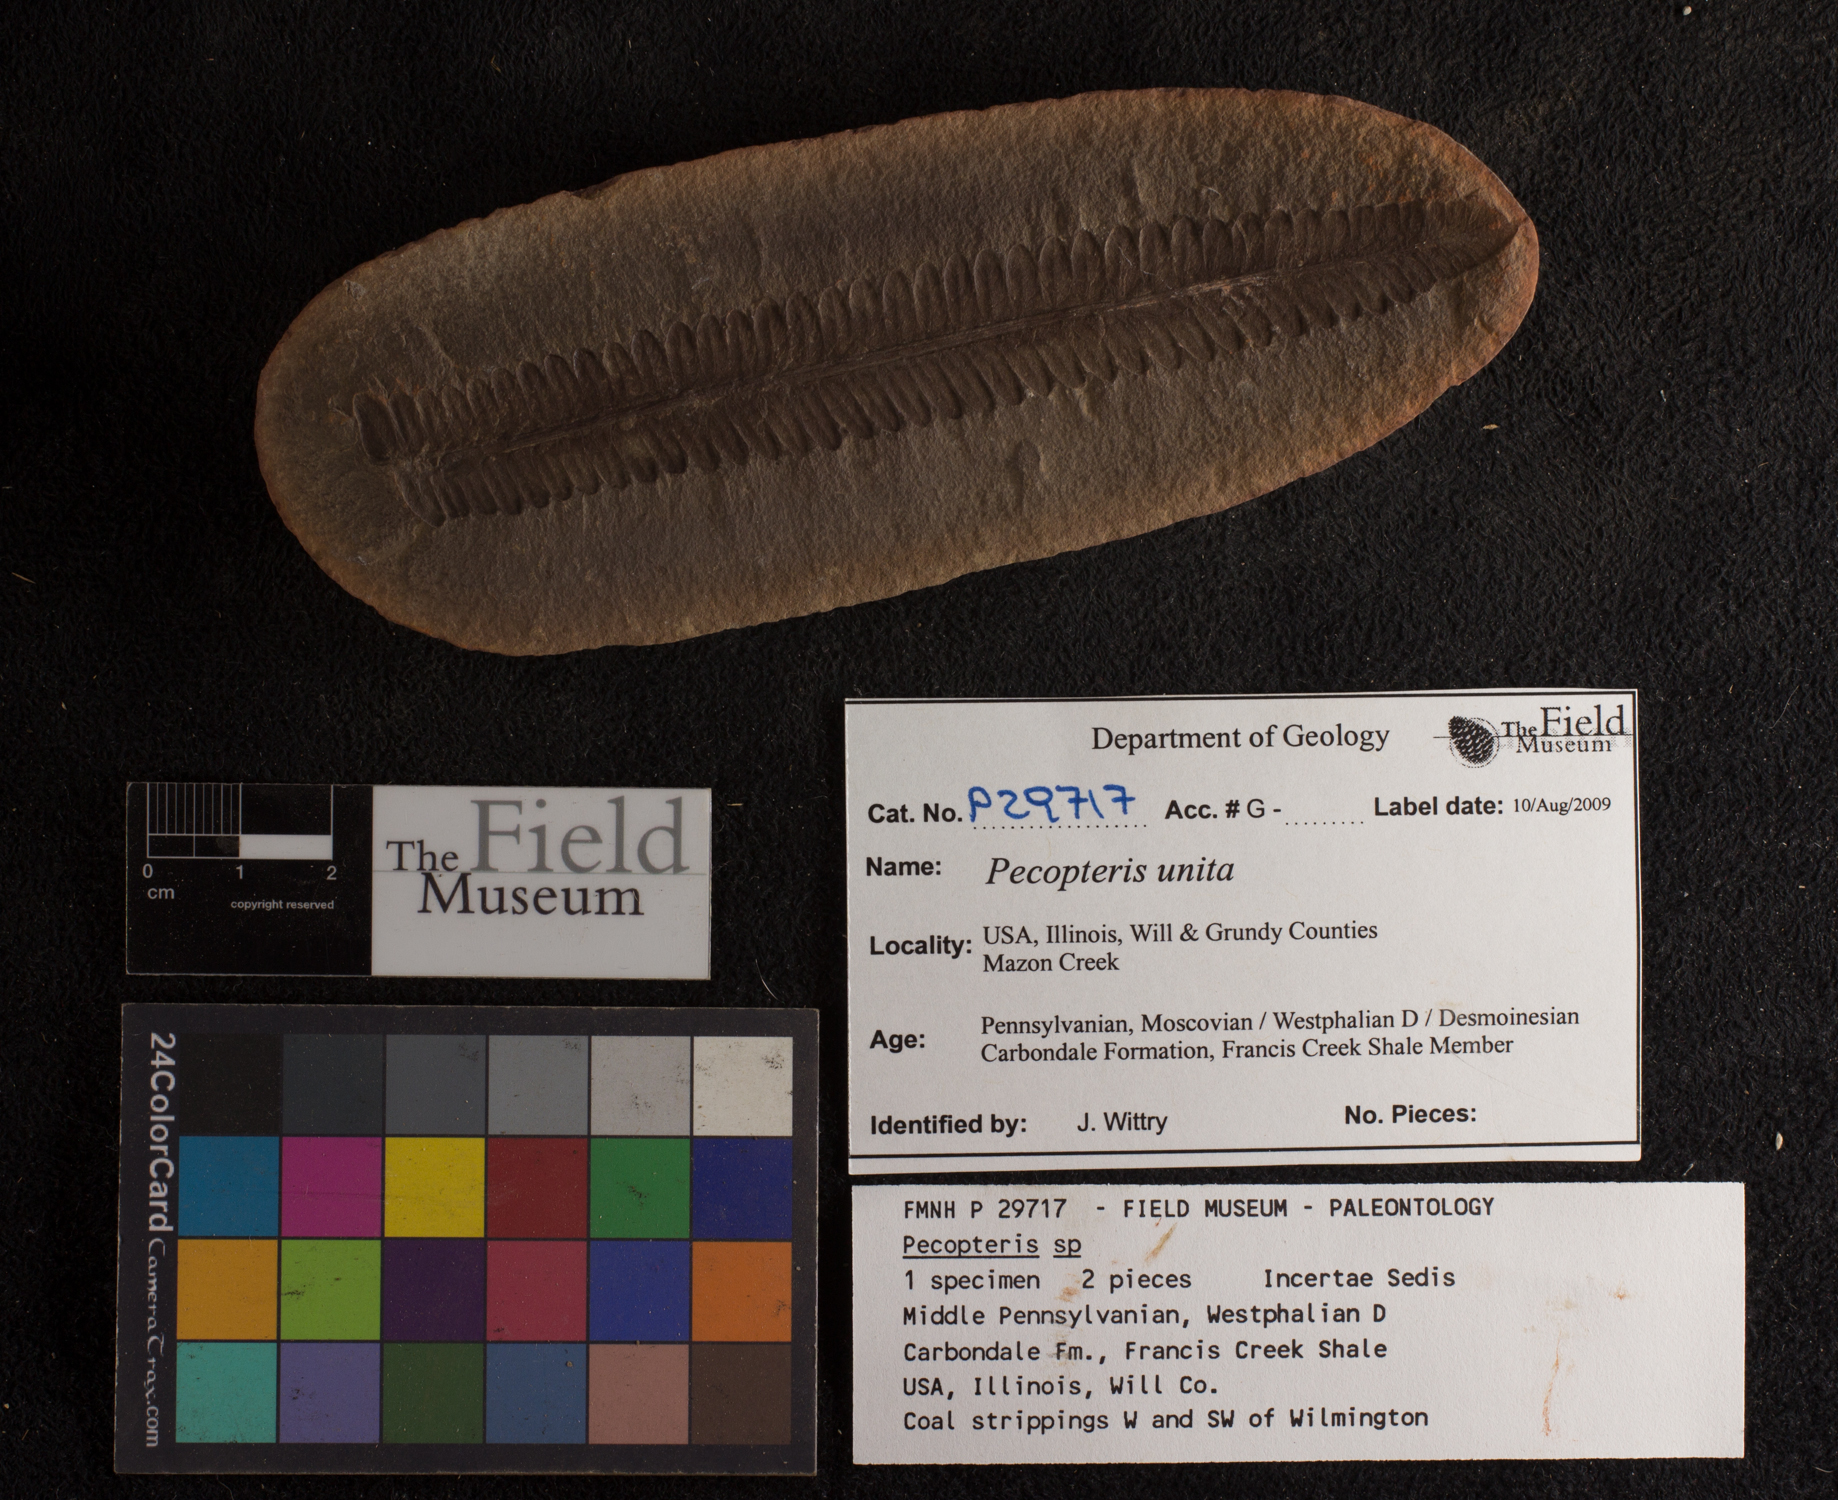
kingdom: Plantae
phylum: Tracheophyta
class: Polypodiopsida
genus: Diplazites
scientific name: Diplazites
